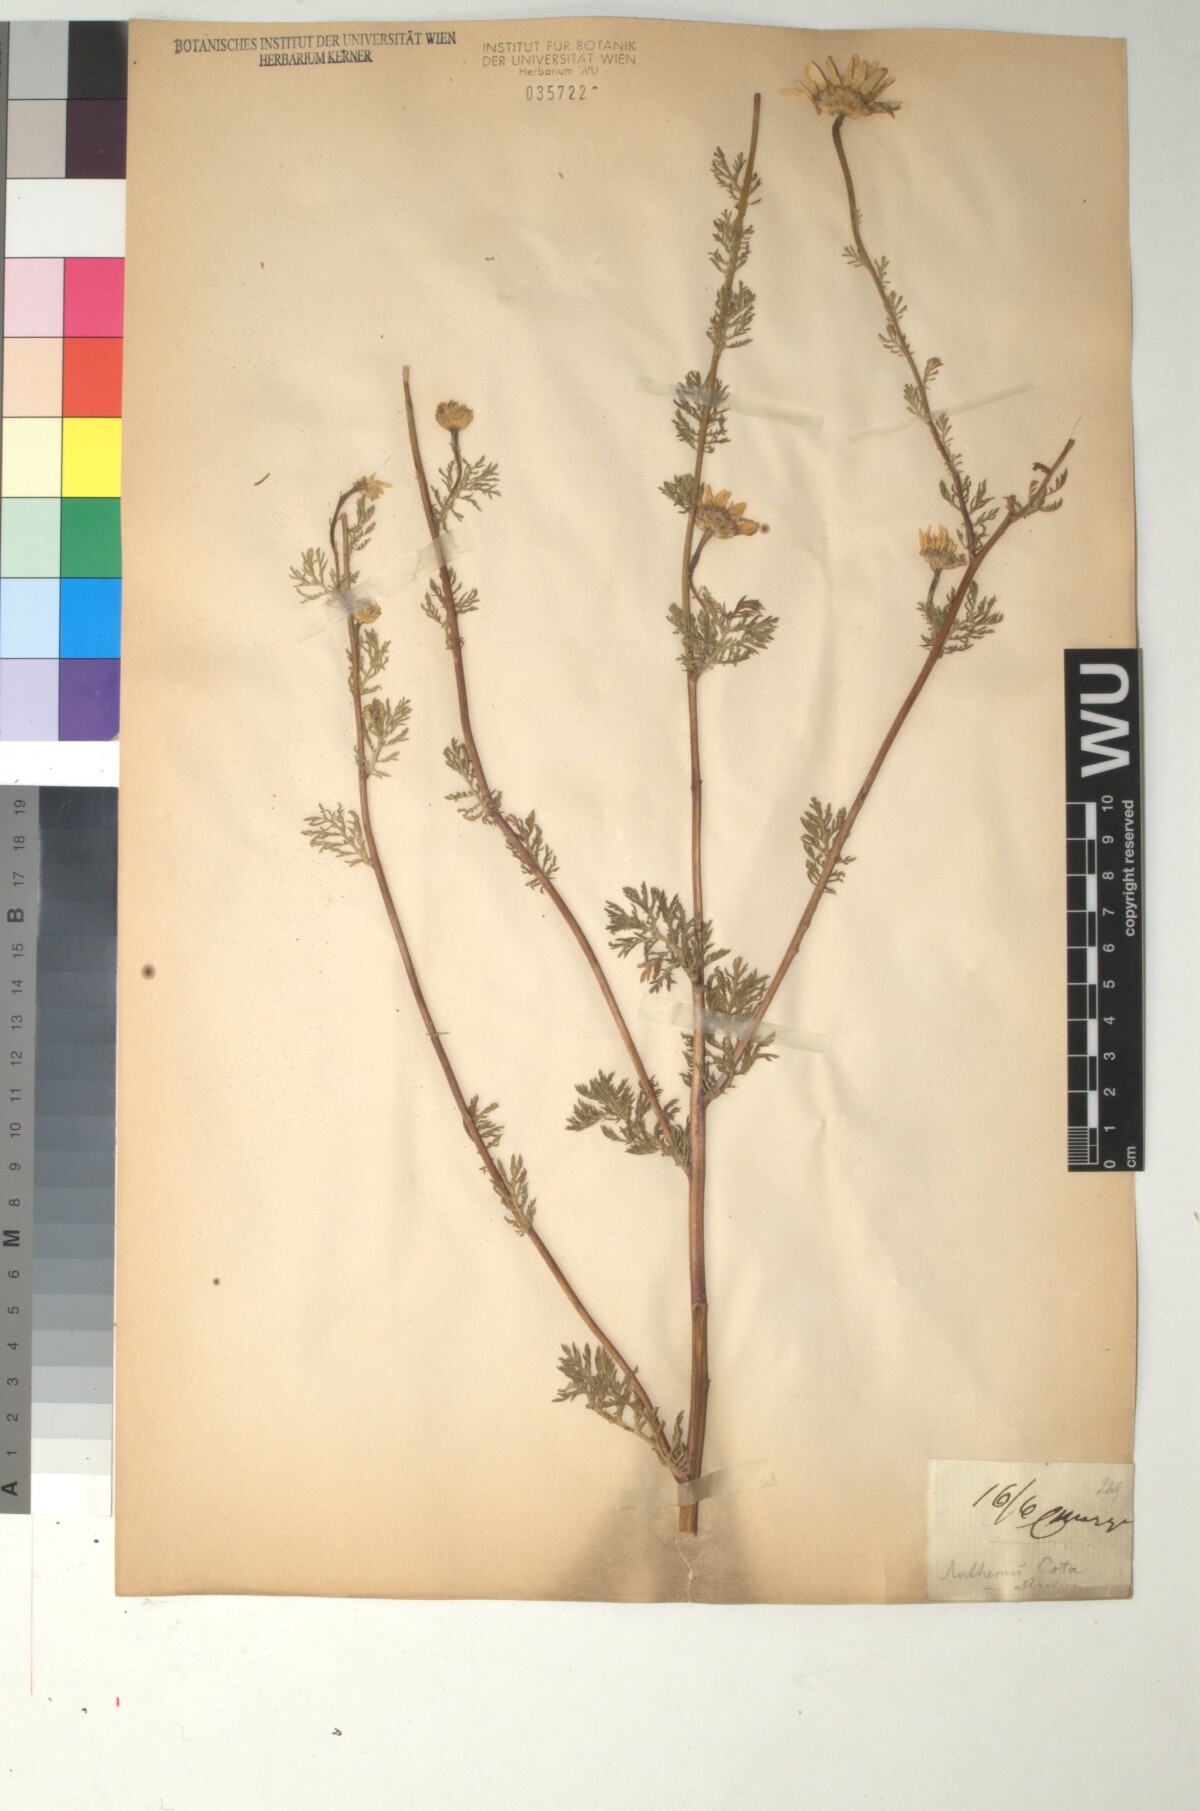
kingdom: Plantae
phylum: Tracheophyta
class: Magnoliopsida
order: Asterales
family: Asteraceae
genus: Cota
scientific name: Cota altissima
